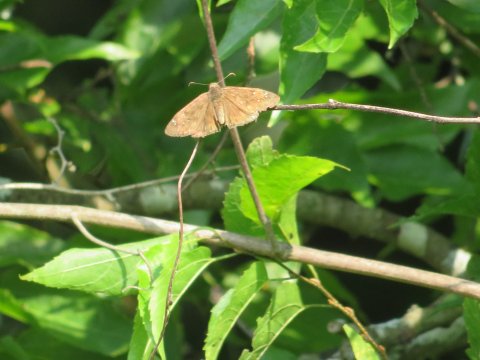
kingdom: Animalia
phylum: Arthropoda
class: Insecta
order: Lepidoptera
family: Hesperiidae
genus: Gesta
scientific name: Gesta
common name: Horace's Duskywing
